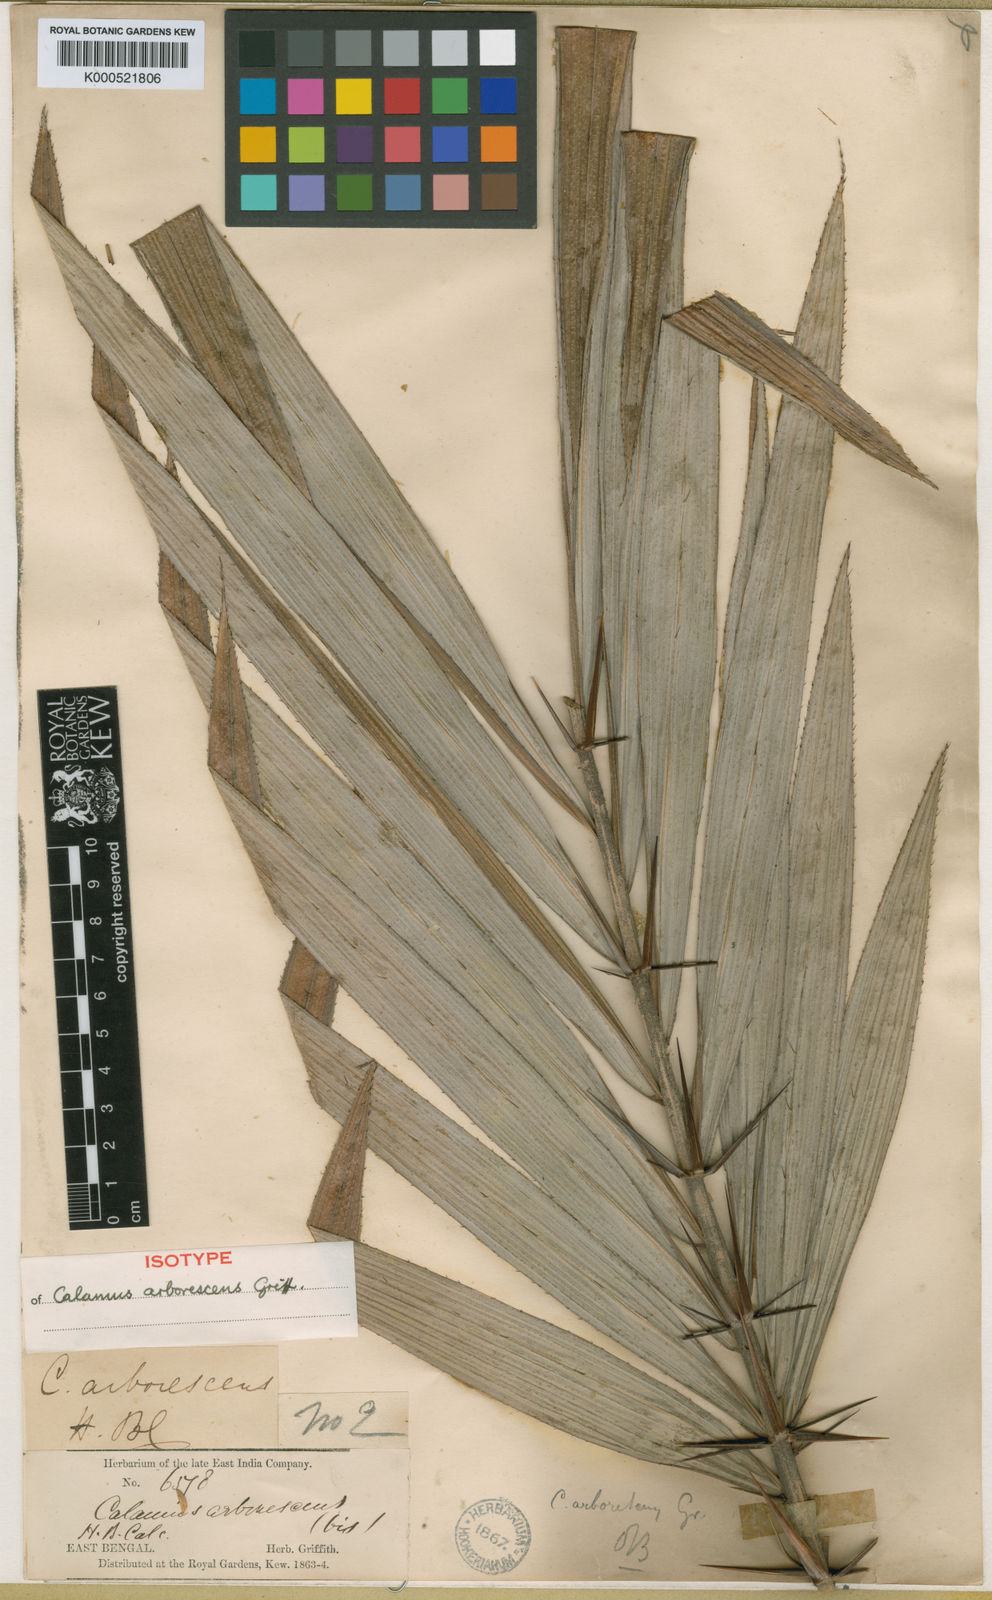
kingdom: Plantae
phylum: Tracheophyta
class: Liliopsida
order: Arecales
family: Arecaceae
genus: Calamus
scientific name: Calamus arborescens
